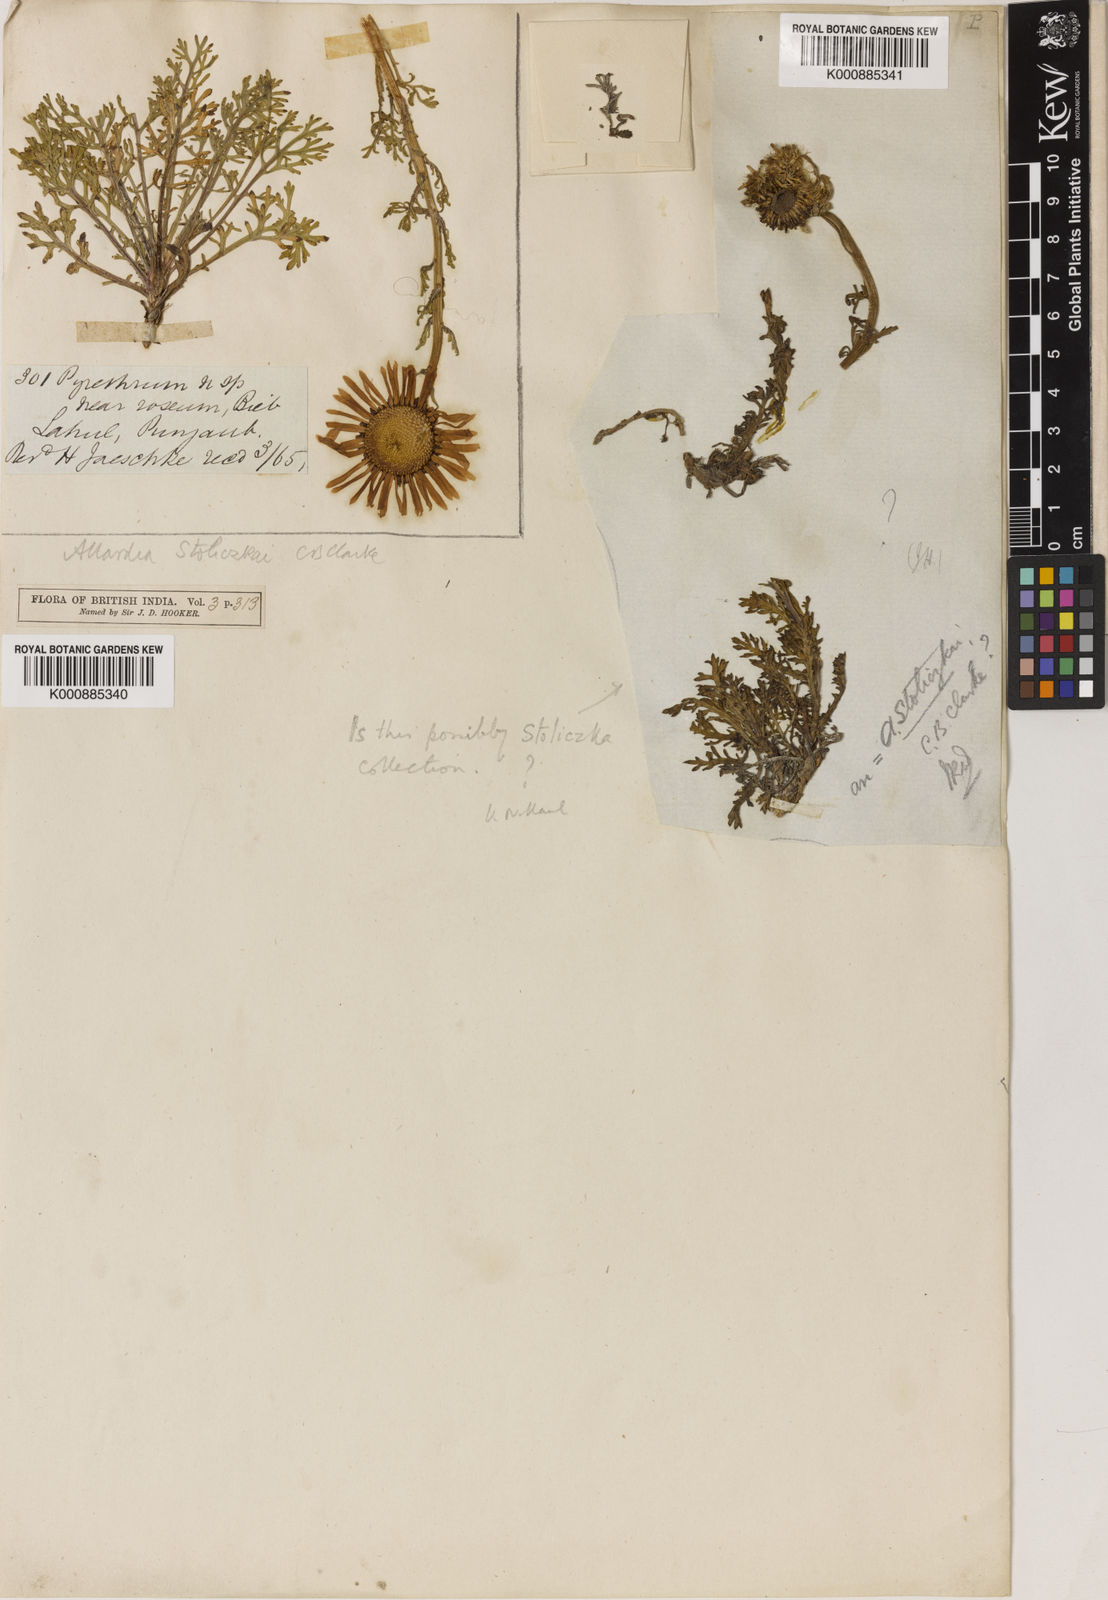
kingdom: Plantae
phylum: Tracheophyta
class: Magnoliopsida
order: Asterales
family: Asteraceae
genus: Allardia
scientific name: Allardia
